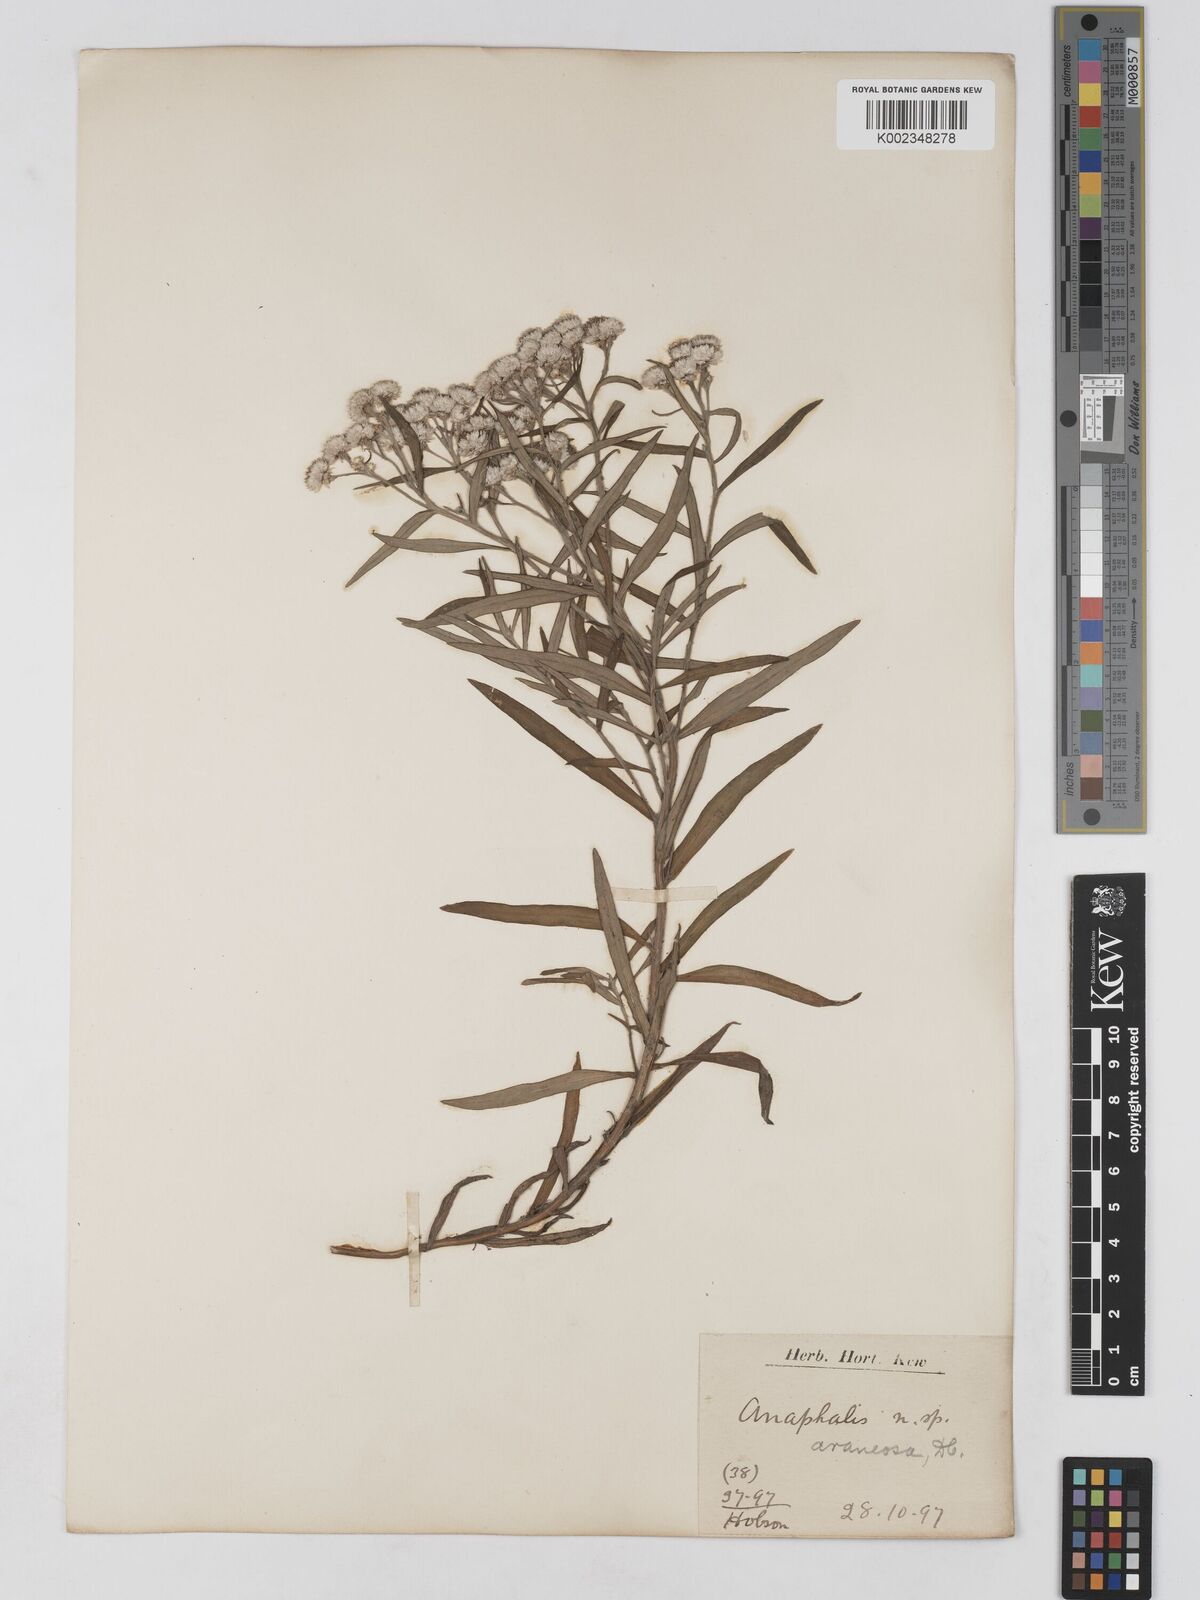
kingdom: Plantae
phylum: Tracheophyta
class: Magnoliopsida
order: Asterales
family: Asteraceae
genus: Anaphalis
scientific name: Anaphalis busua
